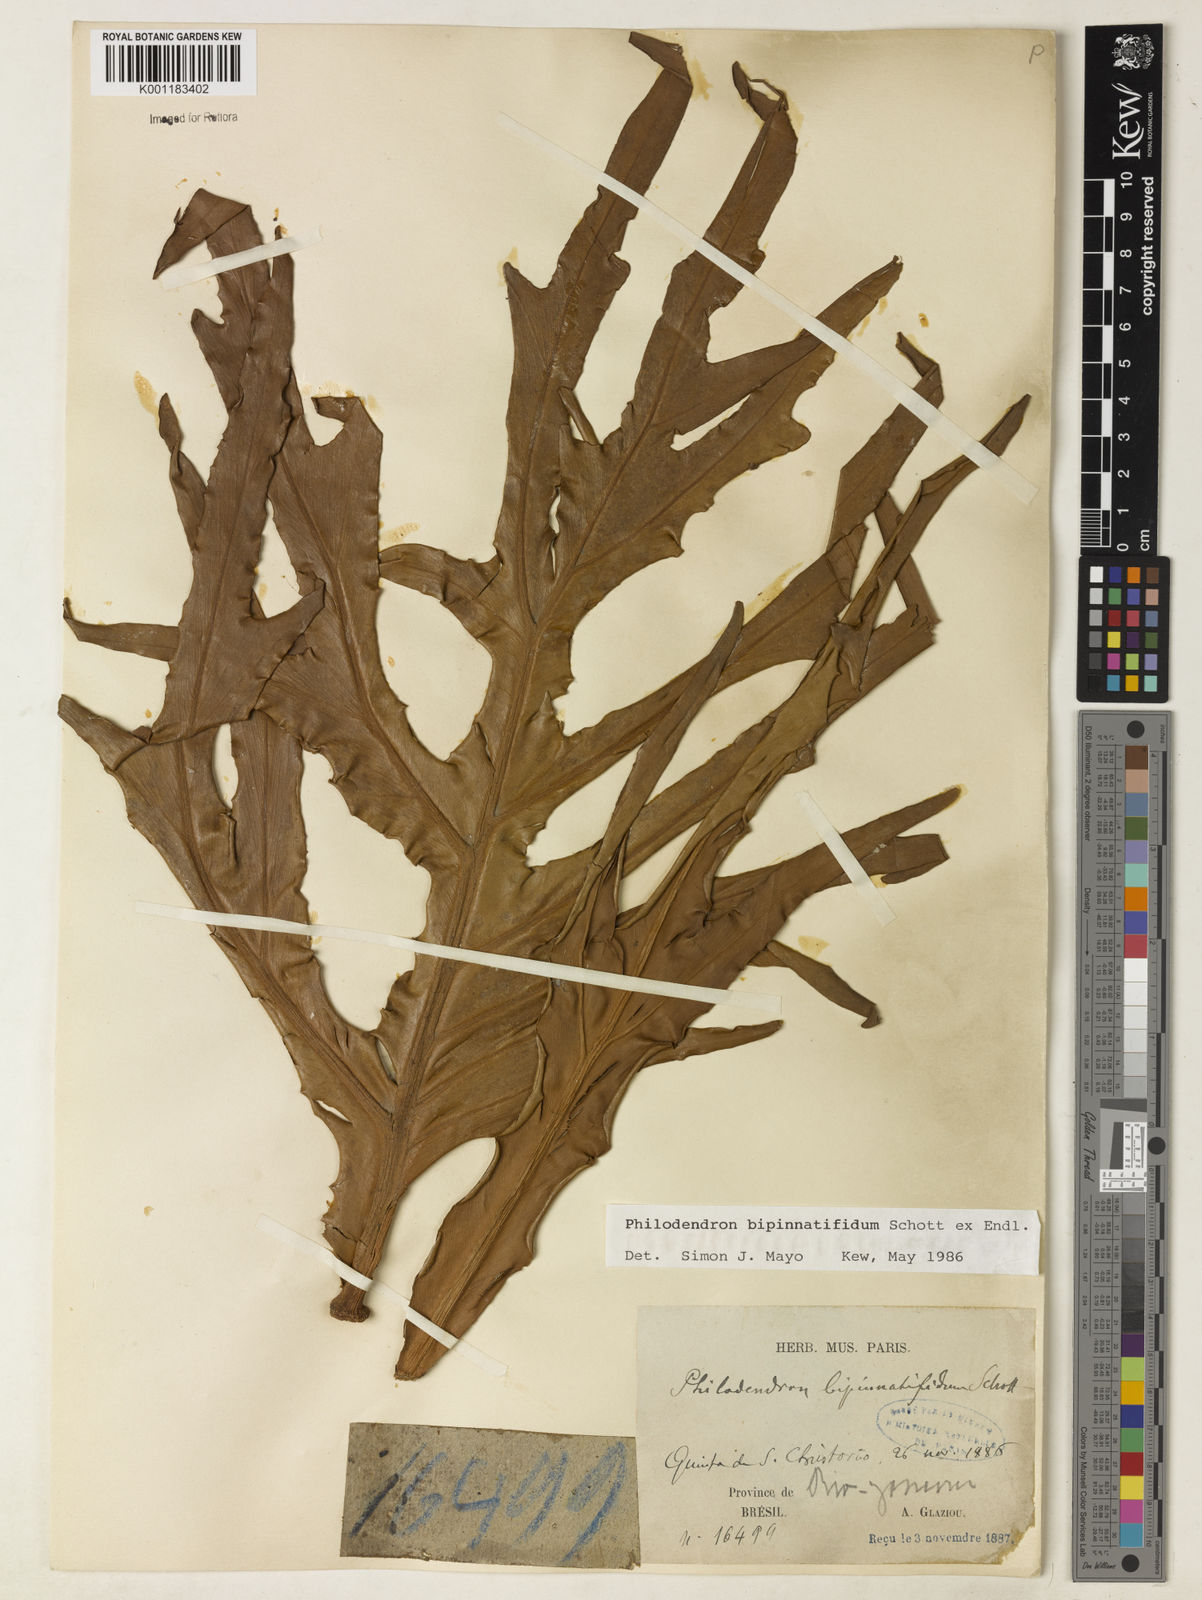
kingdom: Plantae
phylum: Tracheophyta
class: Liliopsida
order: Alismatales
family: Araceae
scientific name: Araceae
